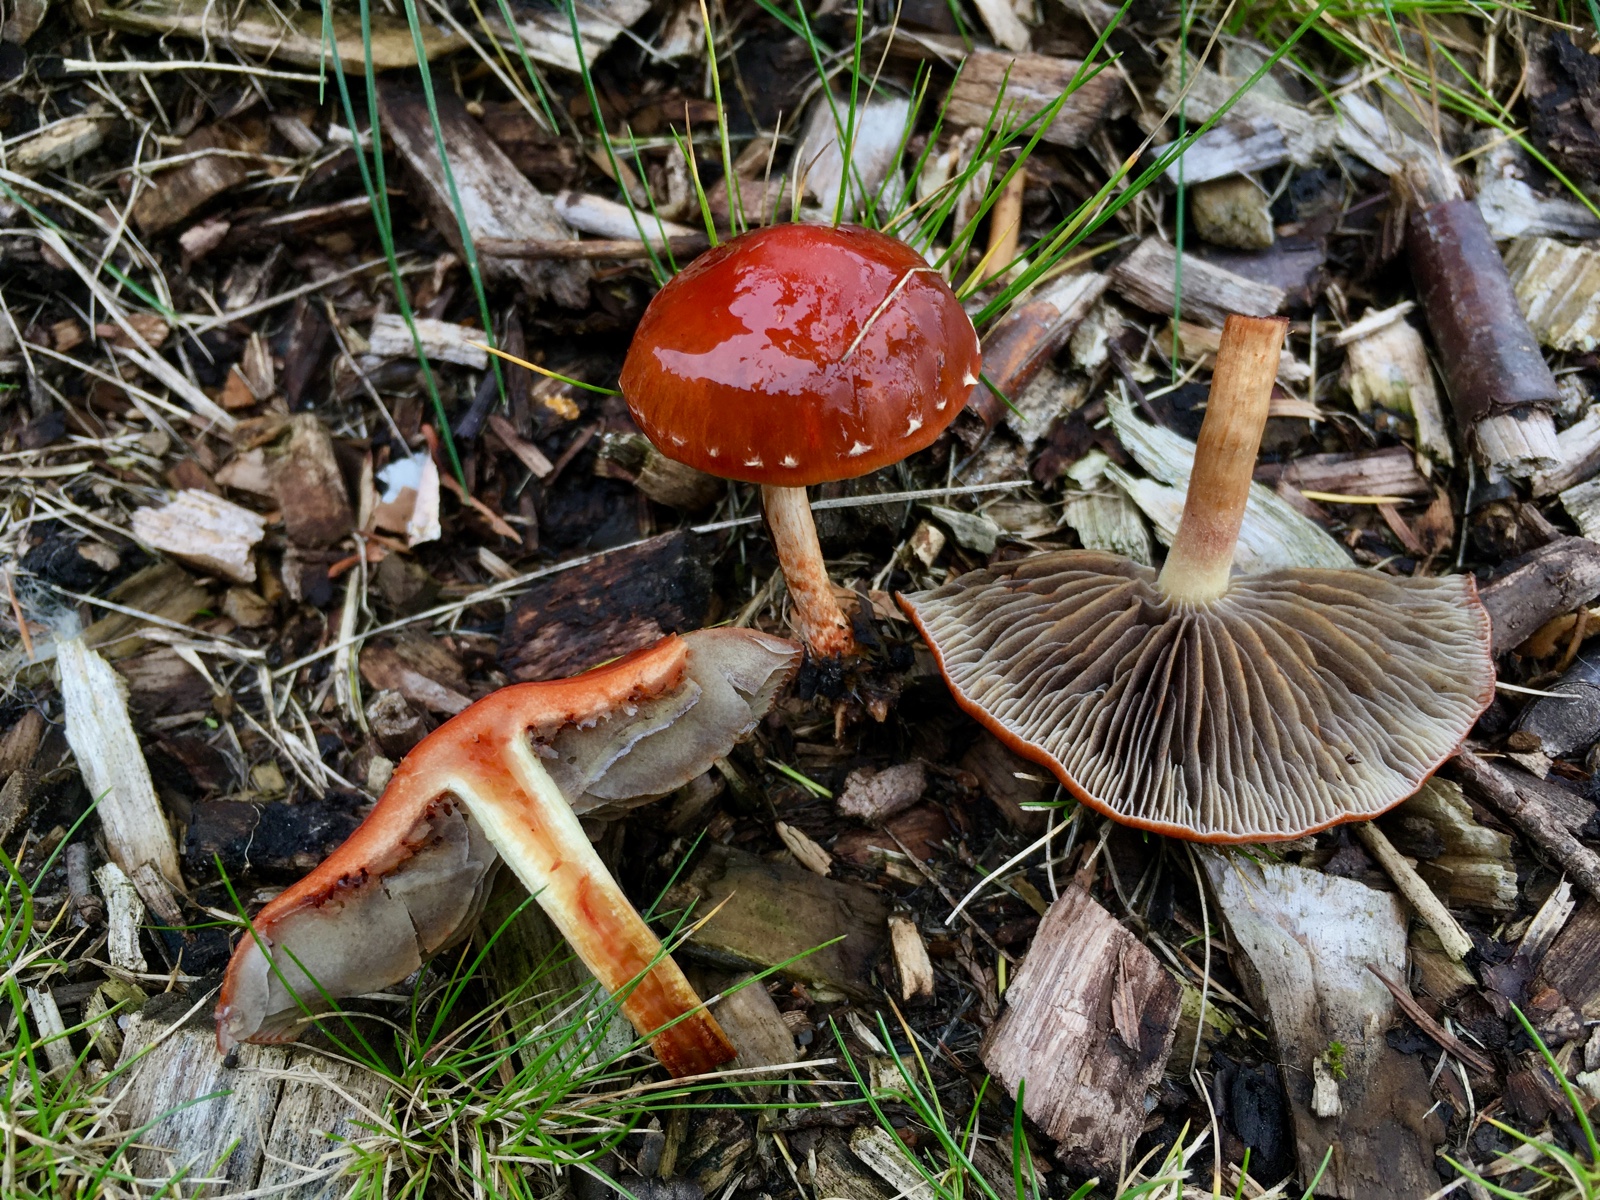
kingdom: Fungi
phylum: Basidiomycota
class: Agaricomycetes
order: Agaricales
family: Strophariaceae
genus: Leratiomyces
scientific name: Leratiomyces ceres
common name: orange bredblad
